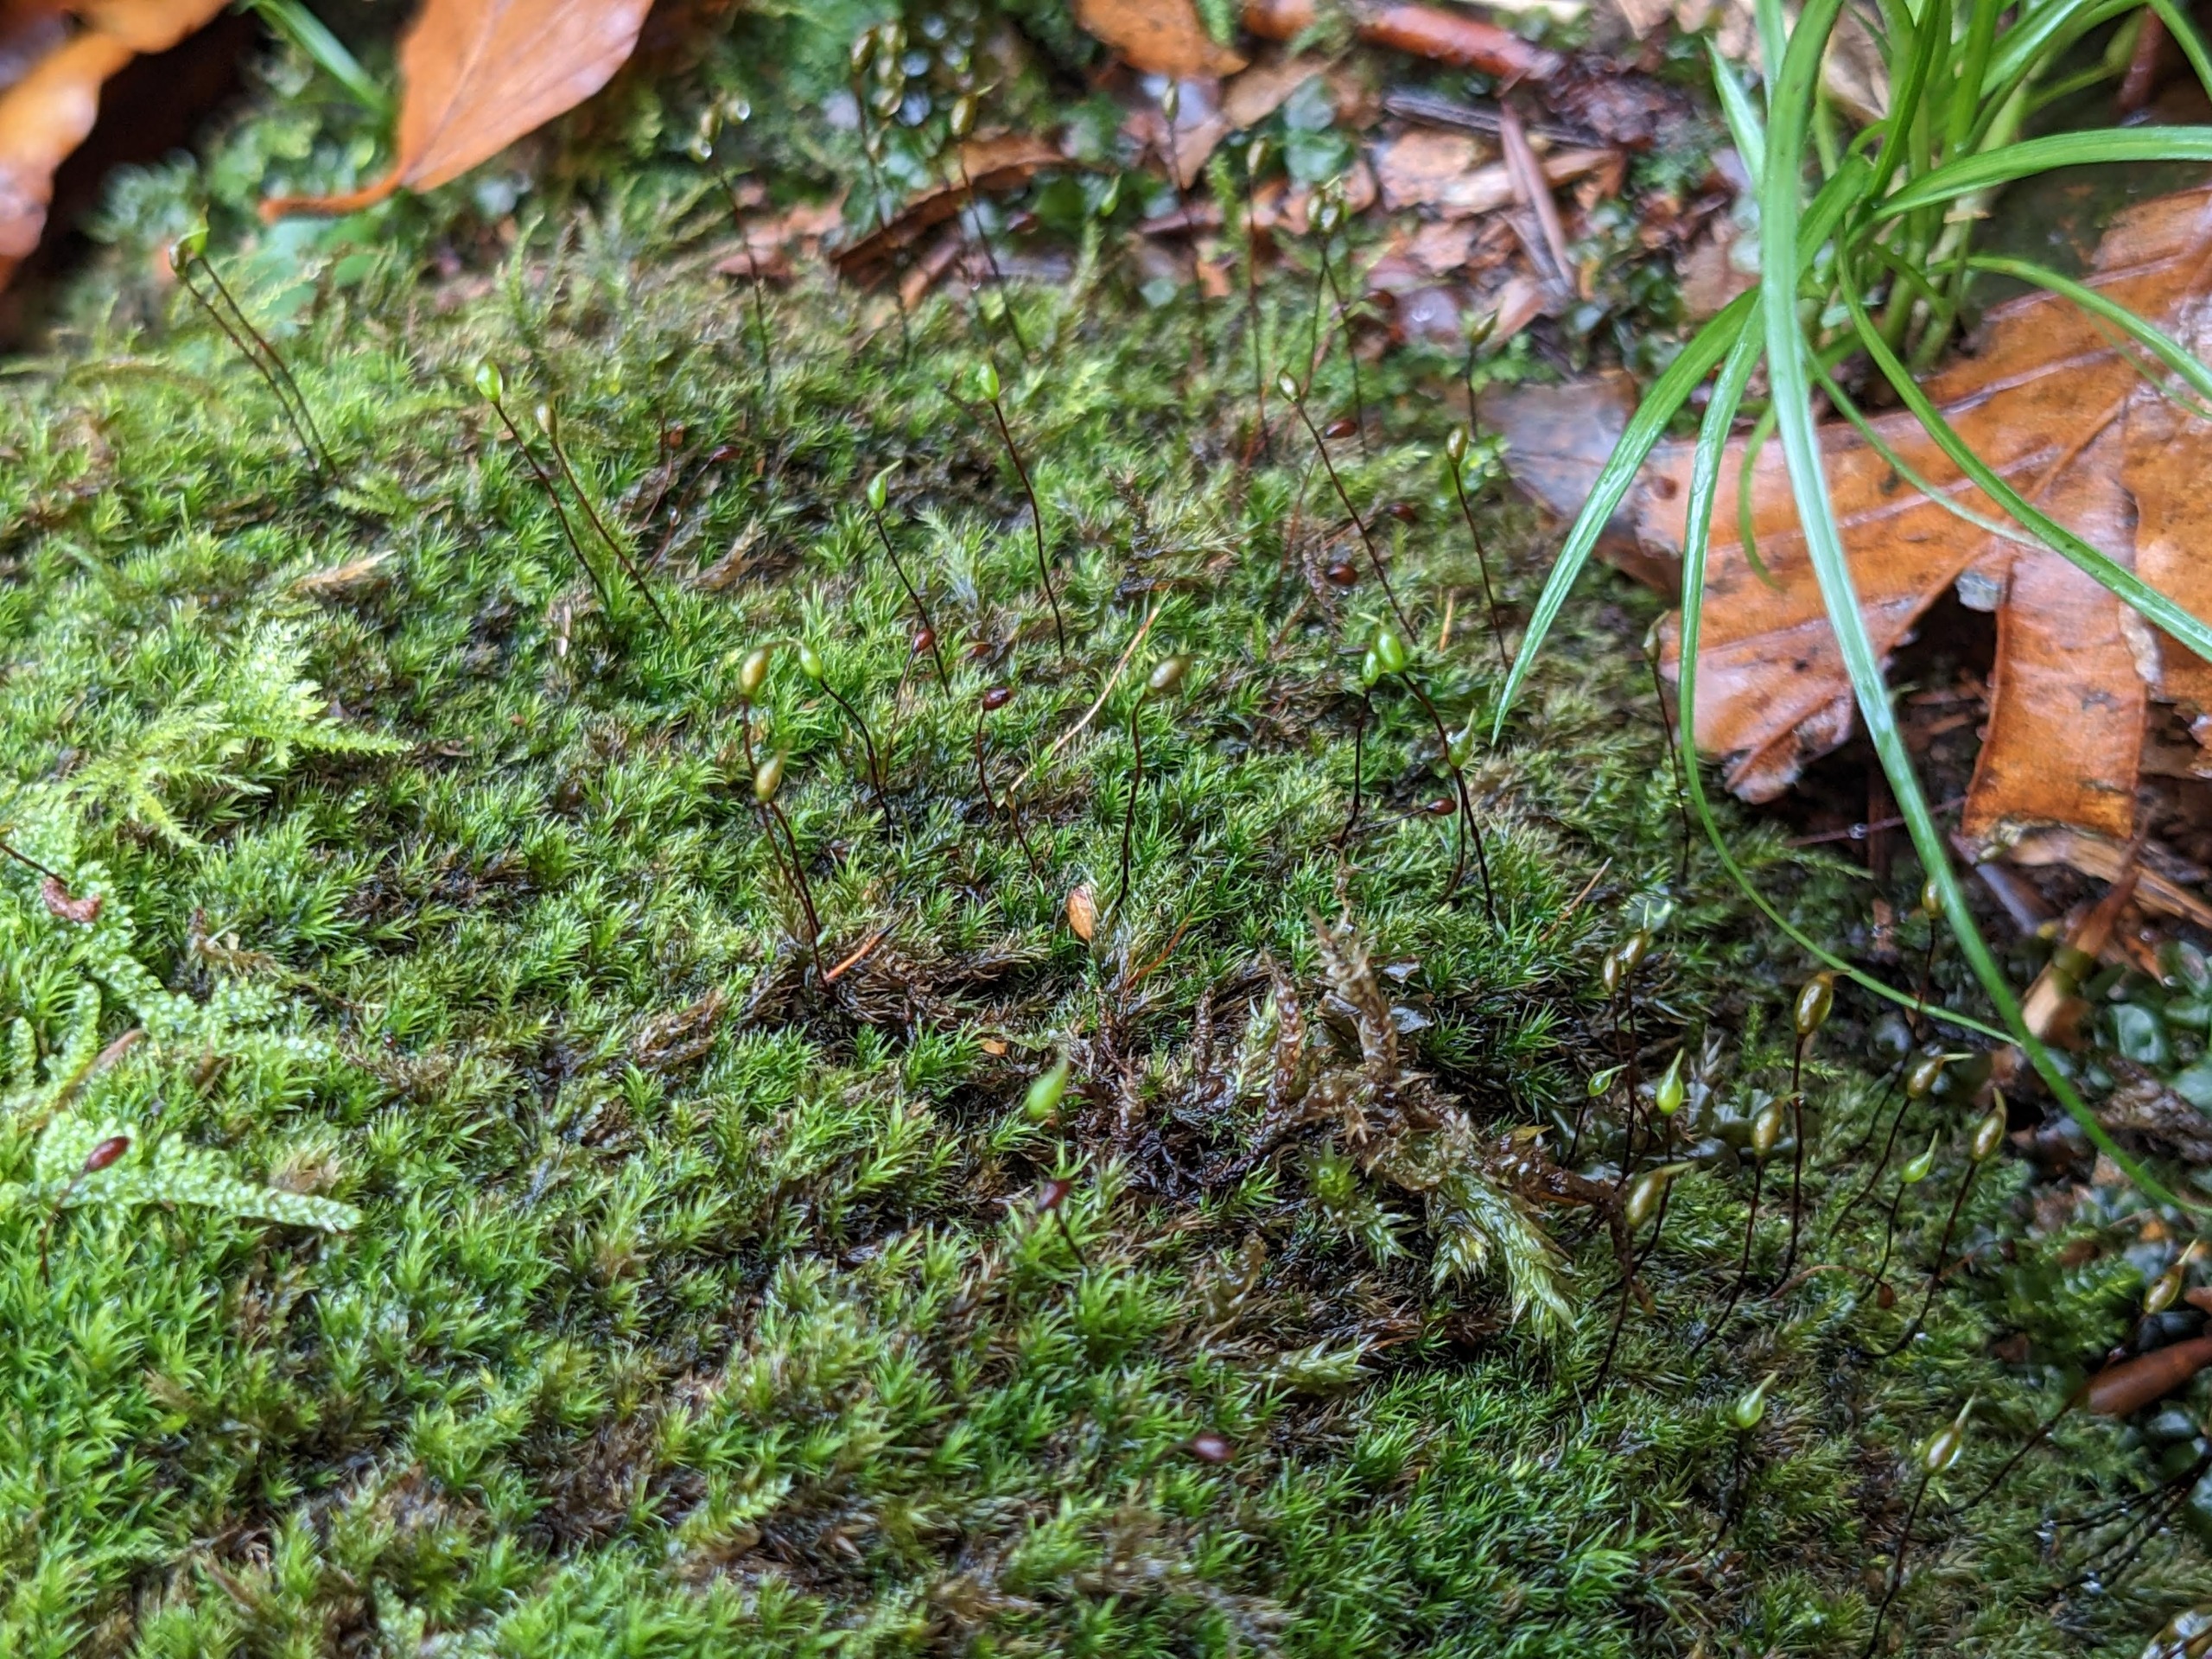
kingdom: Plantae
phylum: Bryophyta
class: Bryopsida
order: Hypnales
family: Brachytheciaceae
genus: Sciuro-hypnum
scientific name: Sciuro-hypnum populeum
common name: Park-kortkapsel
